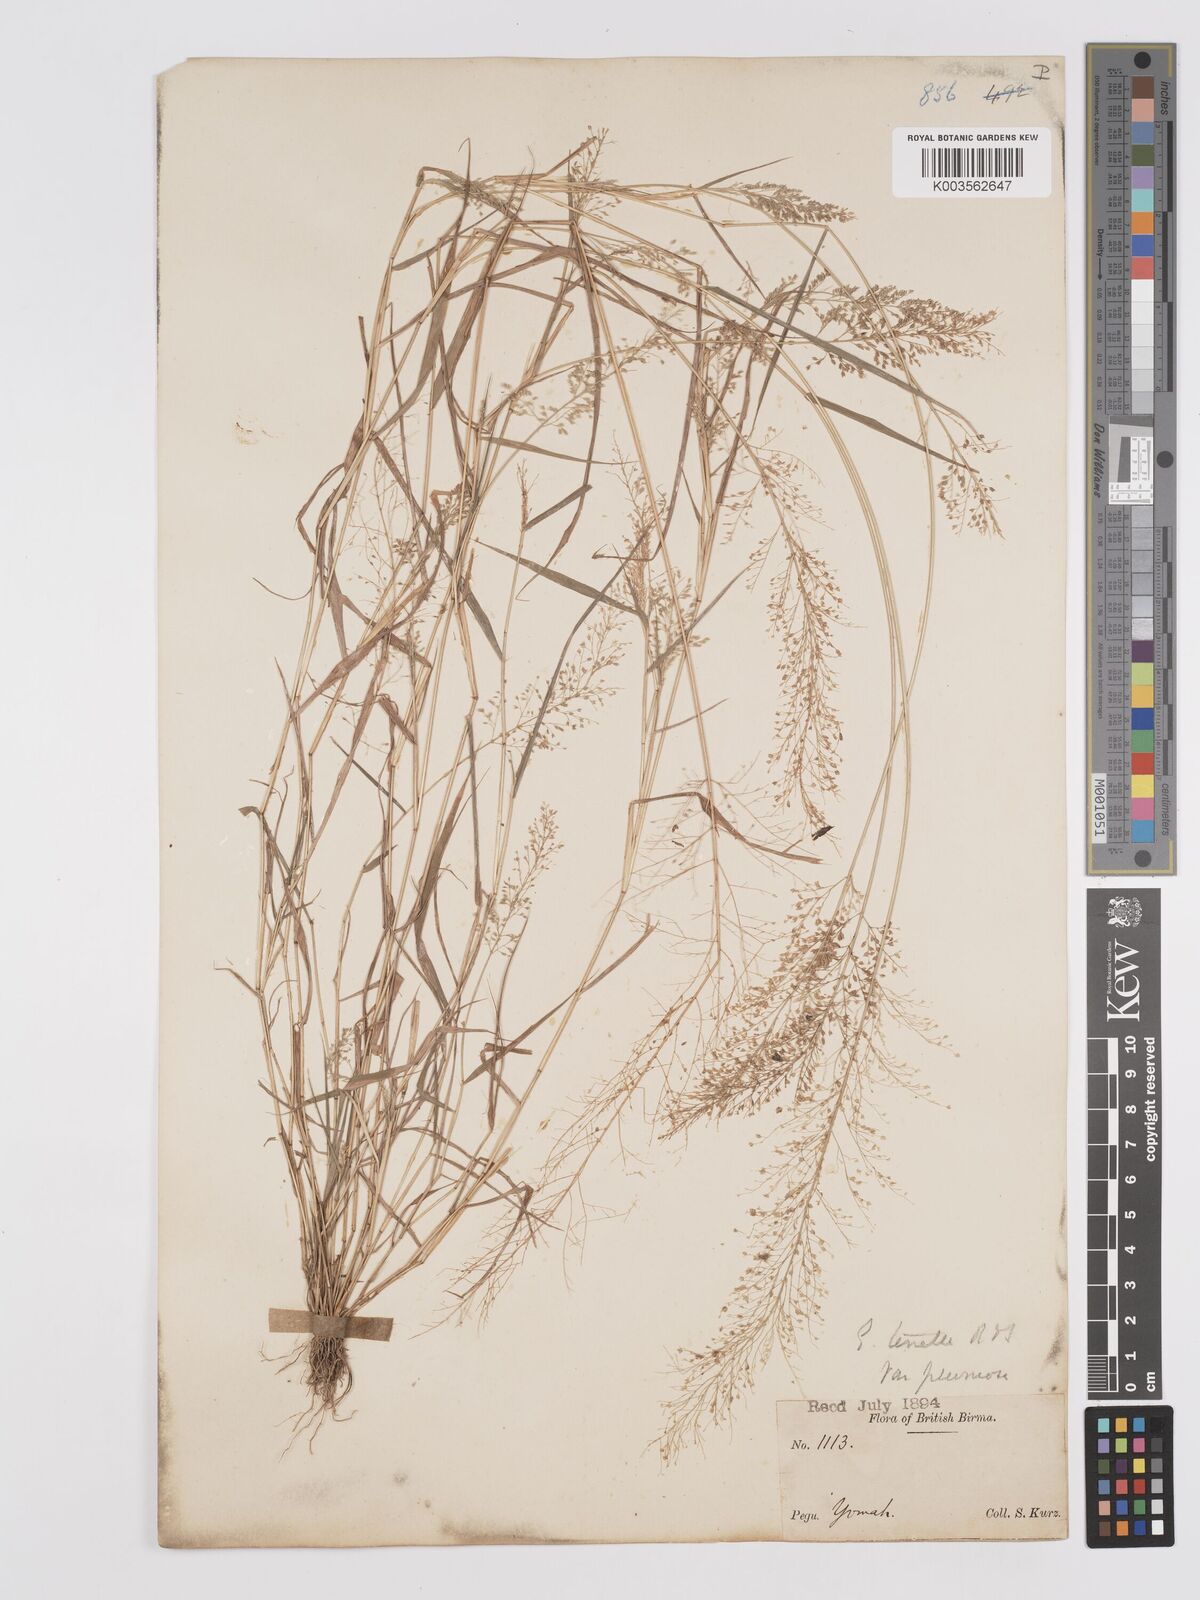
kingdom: Plantae
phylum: Tracheophyta
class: Liliopsida
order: Poales
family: Poaceae
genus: Eragrostis
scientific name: Eragrostis tenella
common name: Japanese lovegrass
